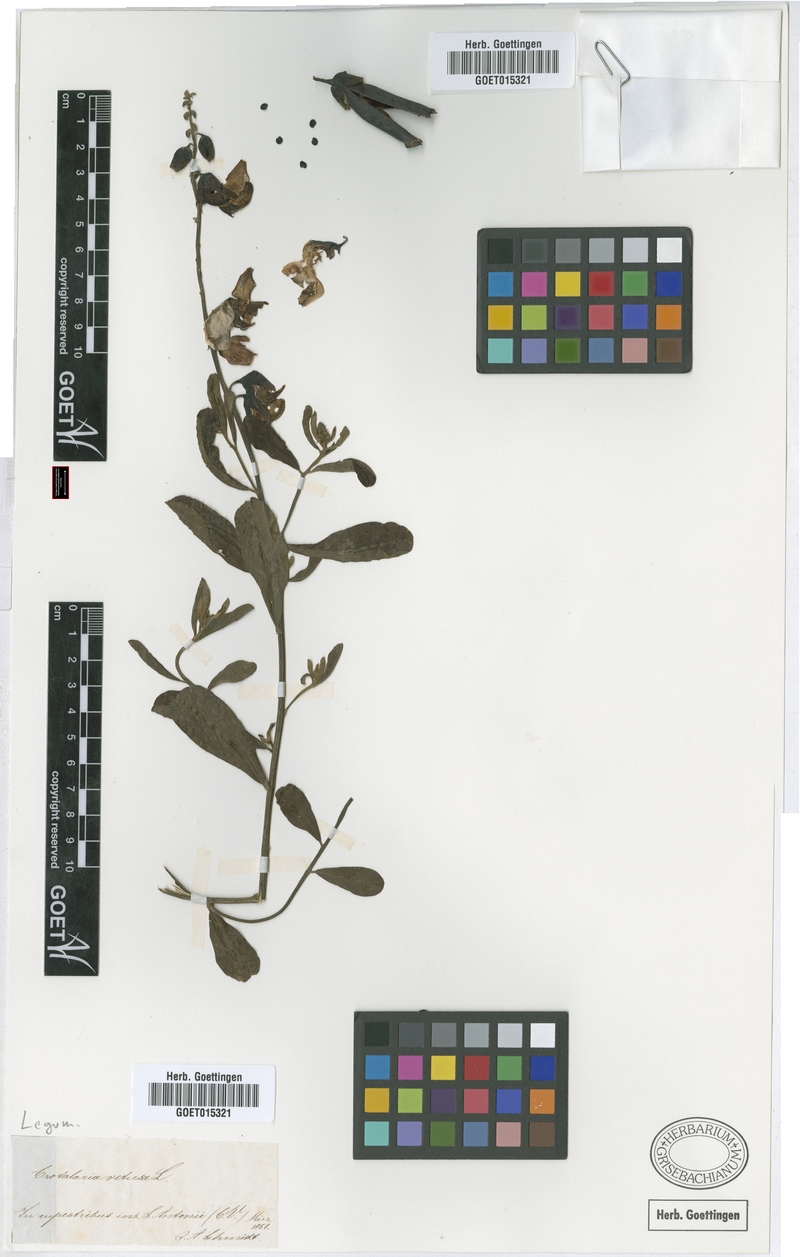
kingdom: Plantae
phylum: Tracheophyta
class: Magnoliopsida
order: Fabales
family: Fabaceae
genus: Crotalaria
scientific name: Crotalaria retusa
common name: Rattleweed
